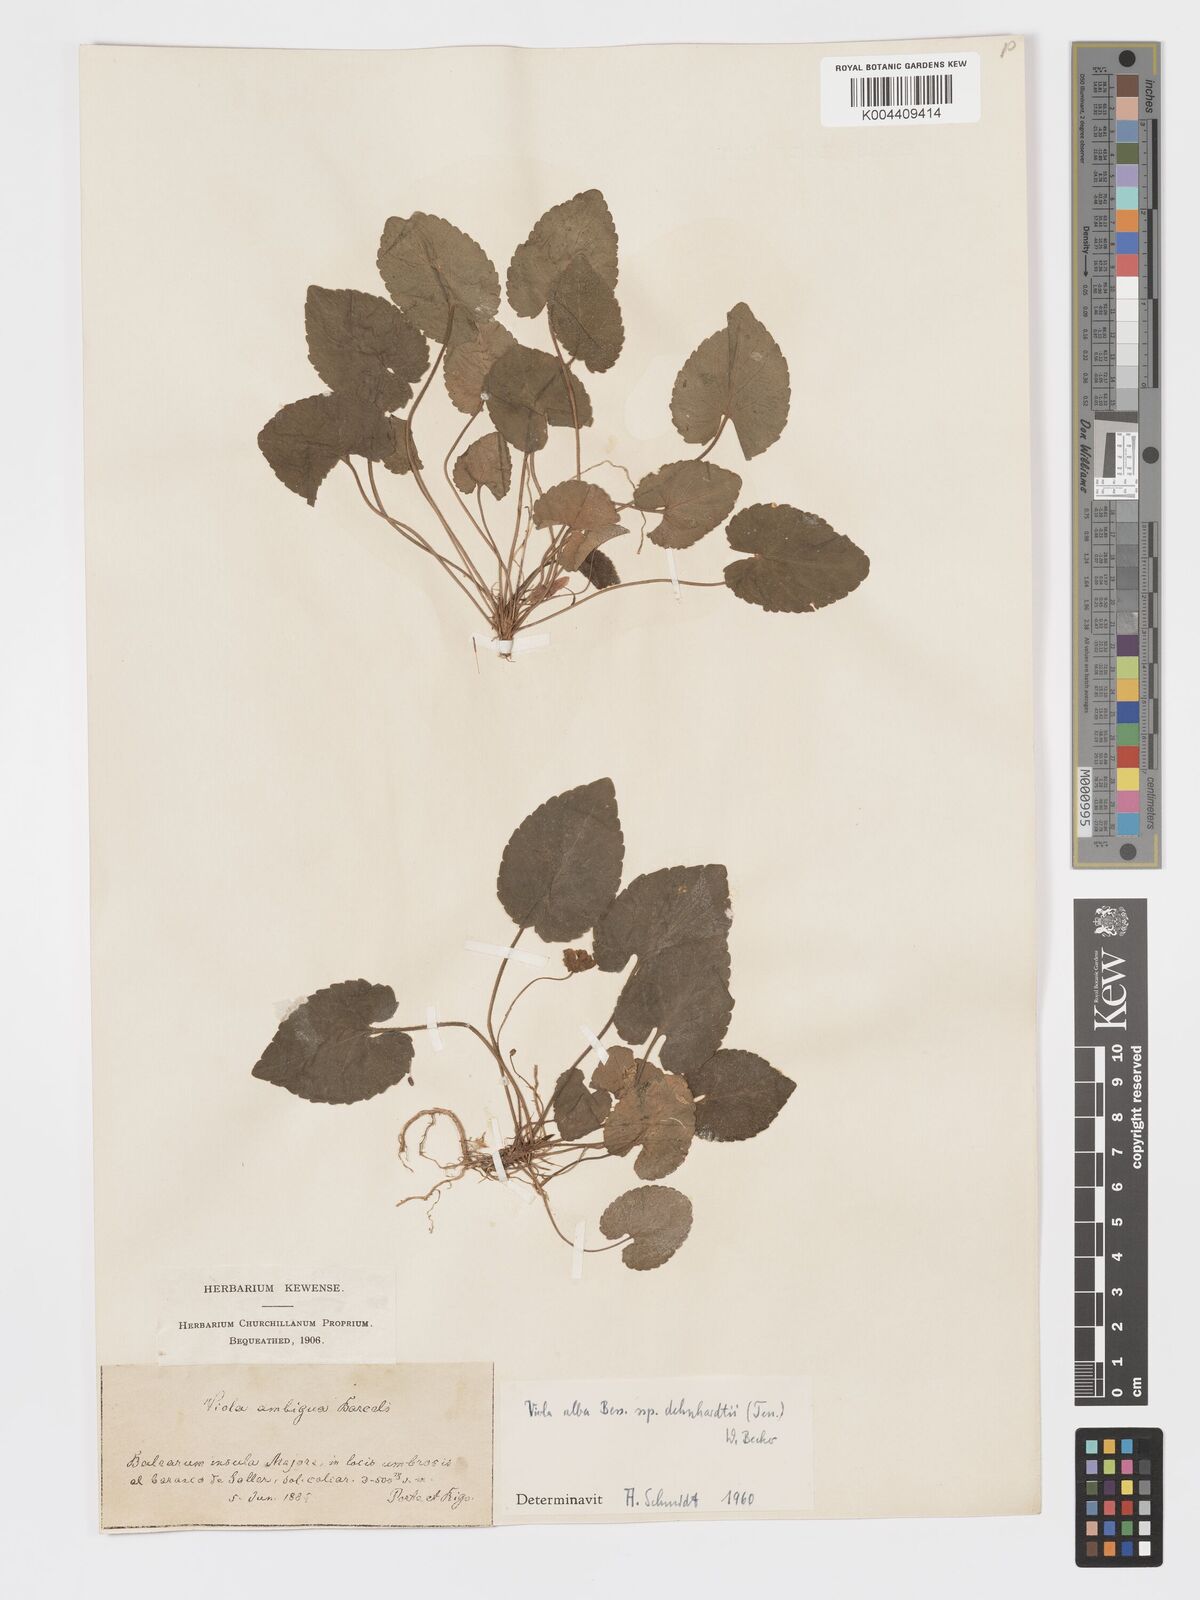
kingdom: Plantae
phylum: Tracheophyta
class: Magnoliopsida
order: Malpighiales
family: Violaceae
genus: Viola
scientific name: Viola alba
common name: White violet
